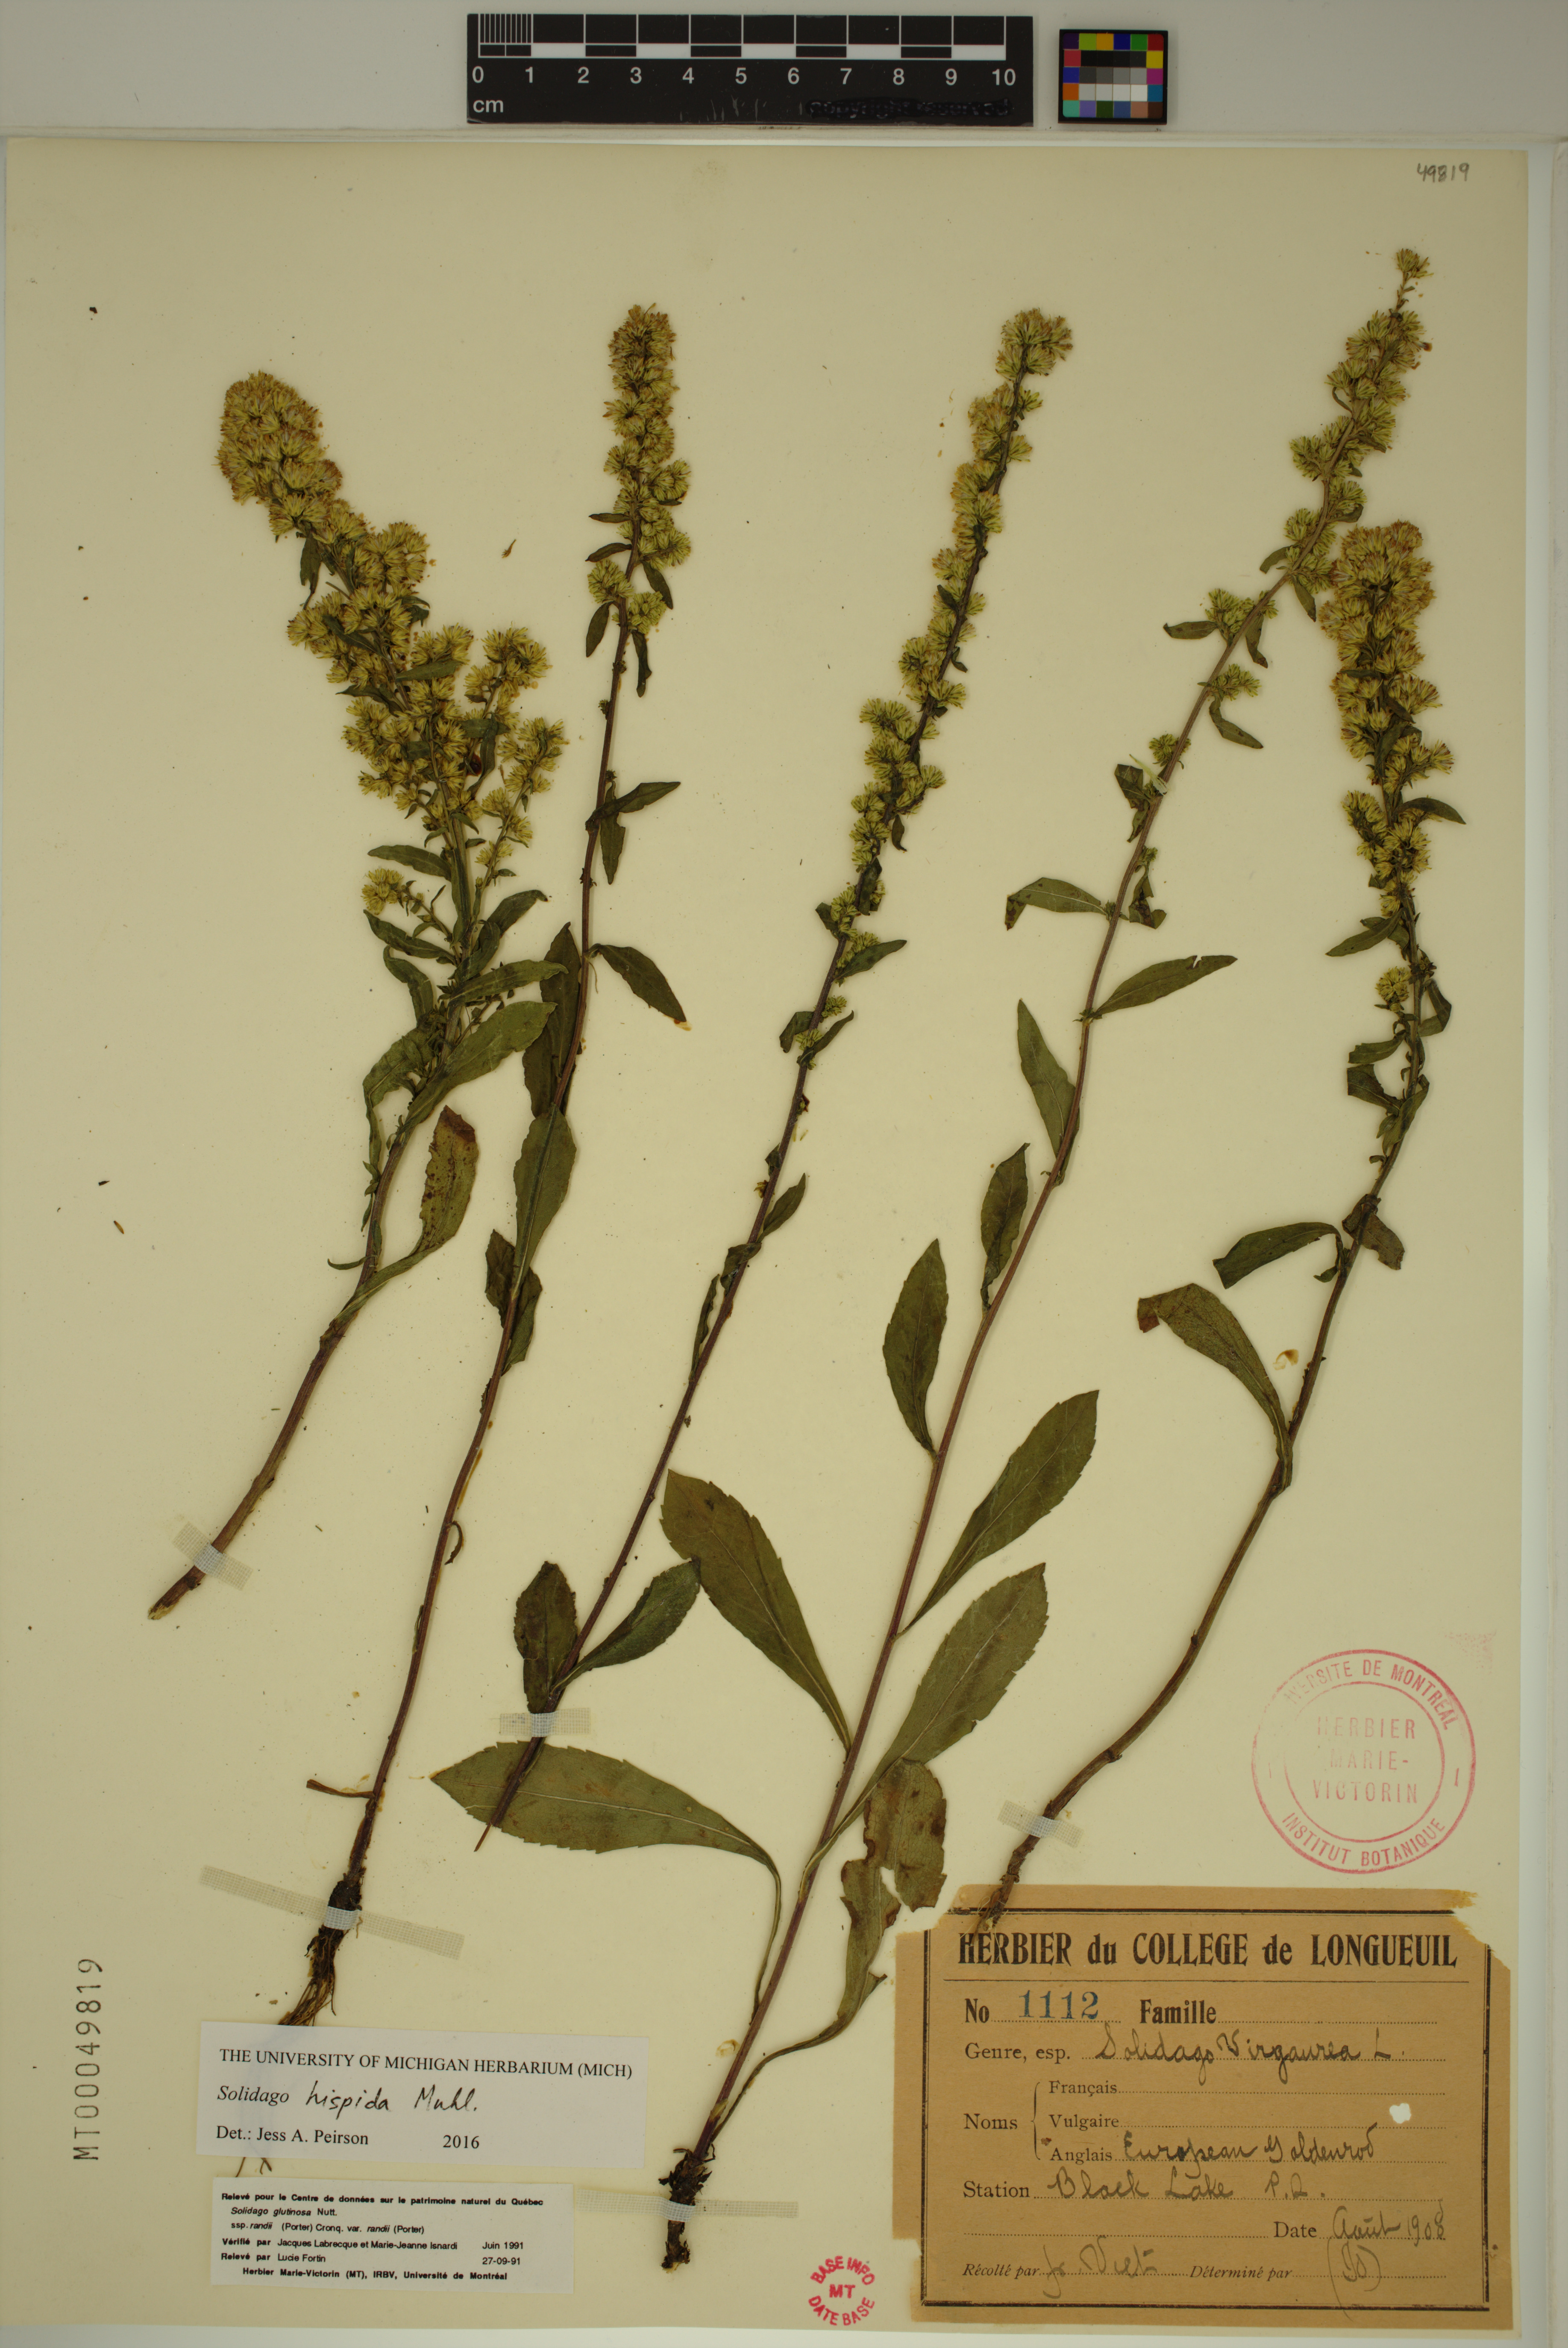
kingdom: Plantae
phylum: Tracheophyta
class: Magnoliopsida
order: Asterales
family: Asteraceae
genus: Solidago
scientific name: Solidago hispida
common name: Hairy goldenrod
